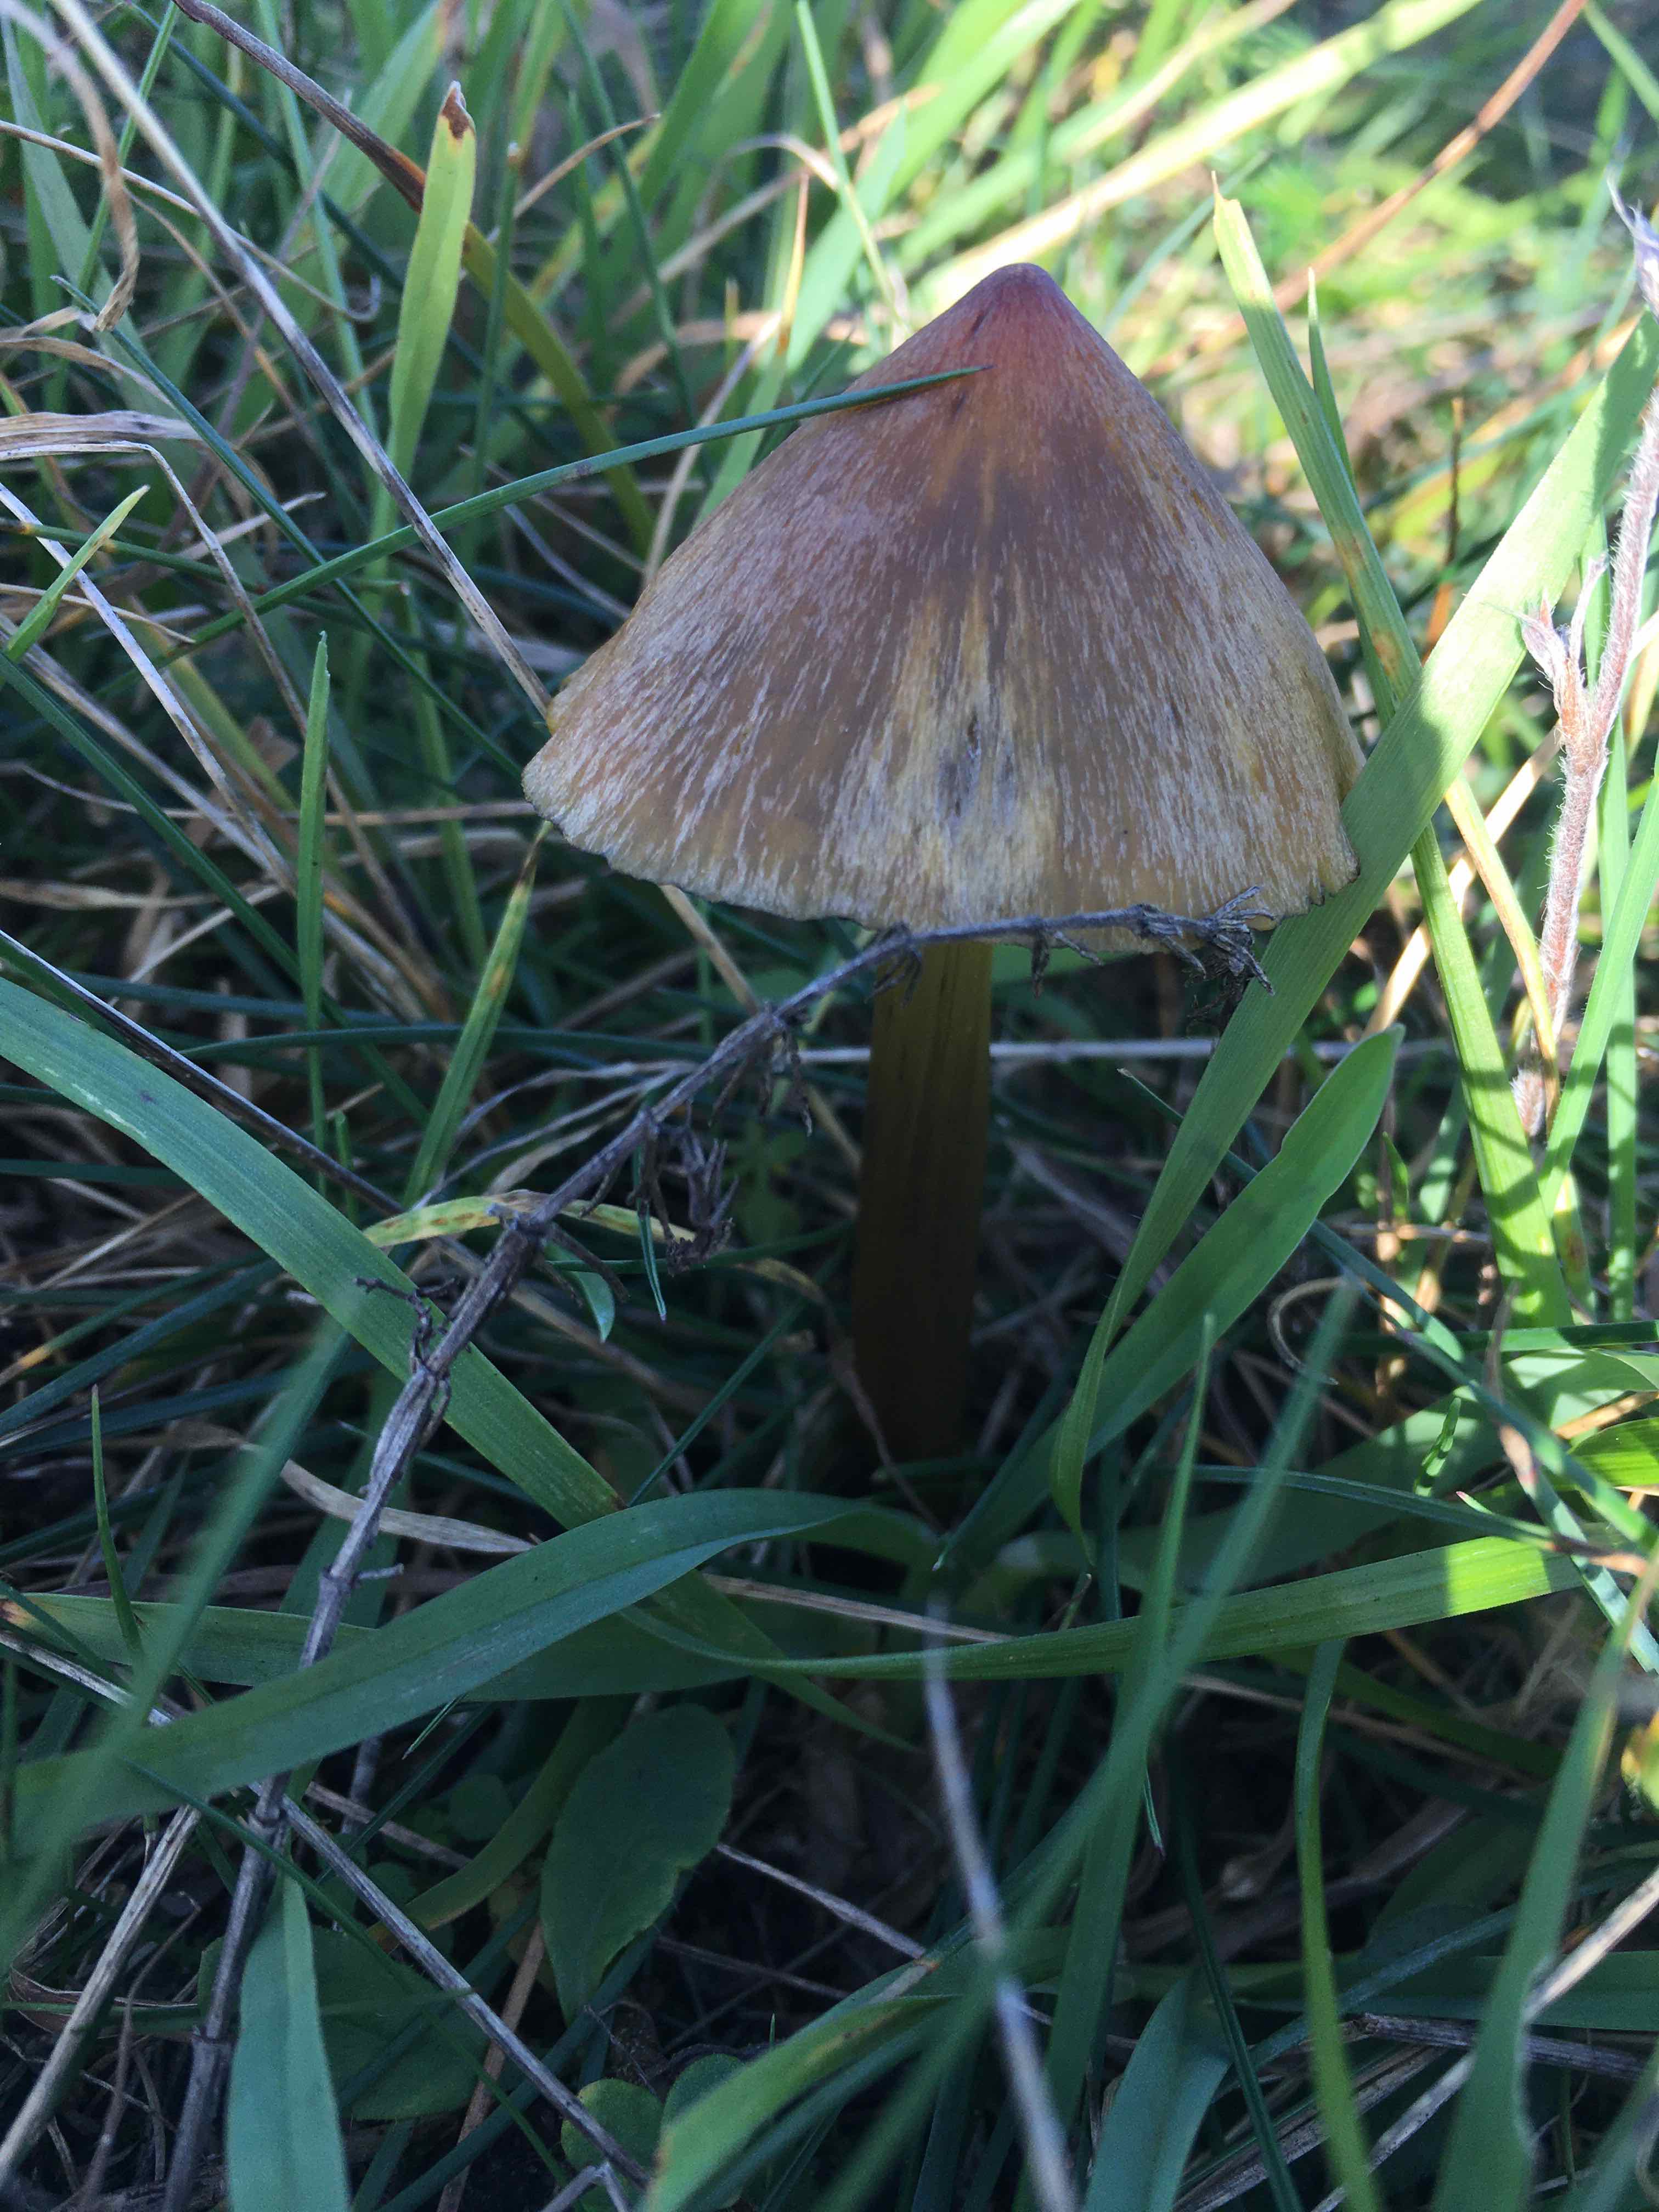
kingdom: Fungi
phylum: Basidiomycota
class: Agaricomycetes
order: Agaricales
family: Hygrophoraceae
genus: Hygrocybe
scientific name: Hygrocybe conica
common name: kegle-vokshat
